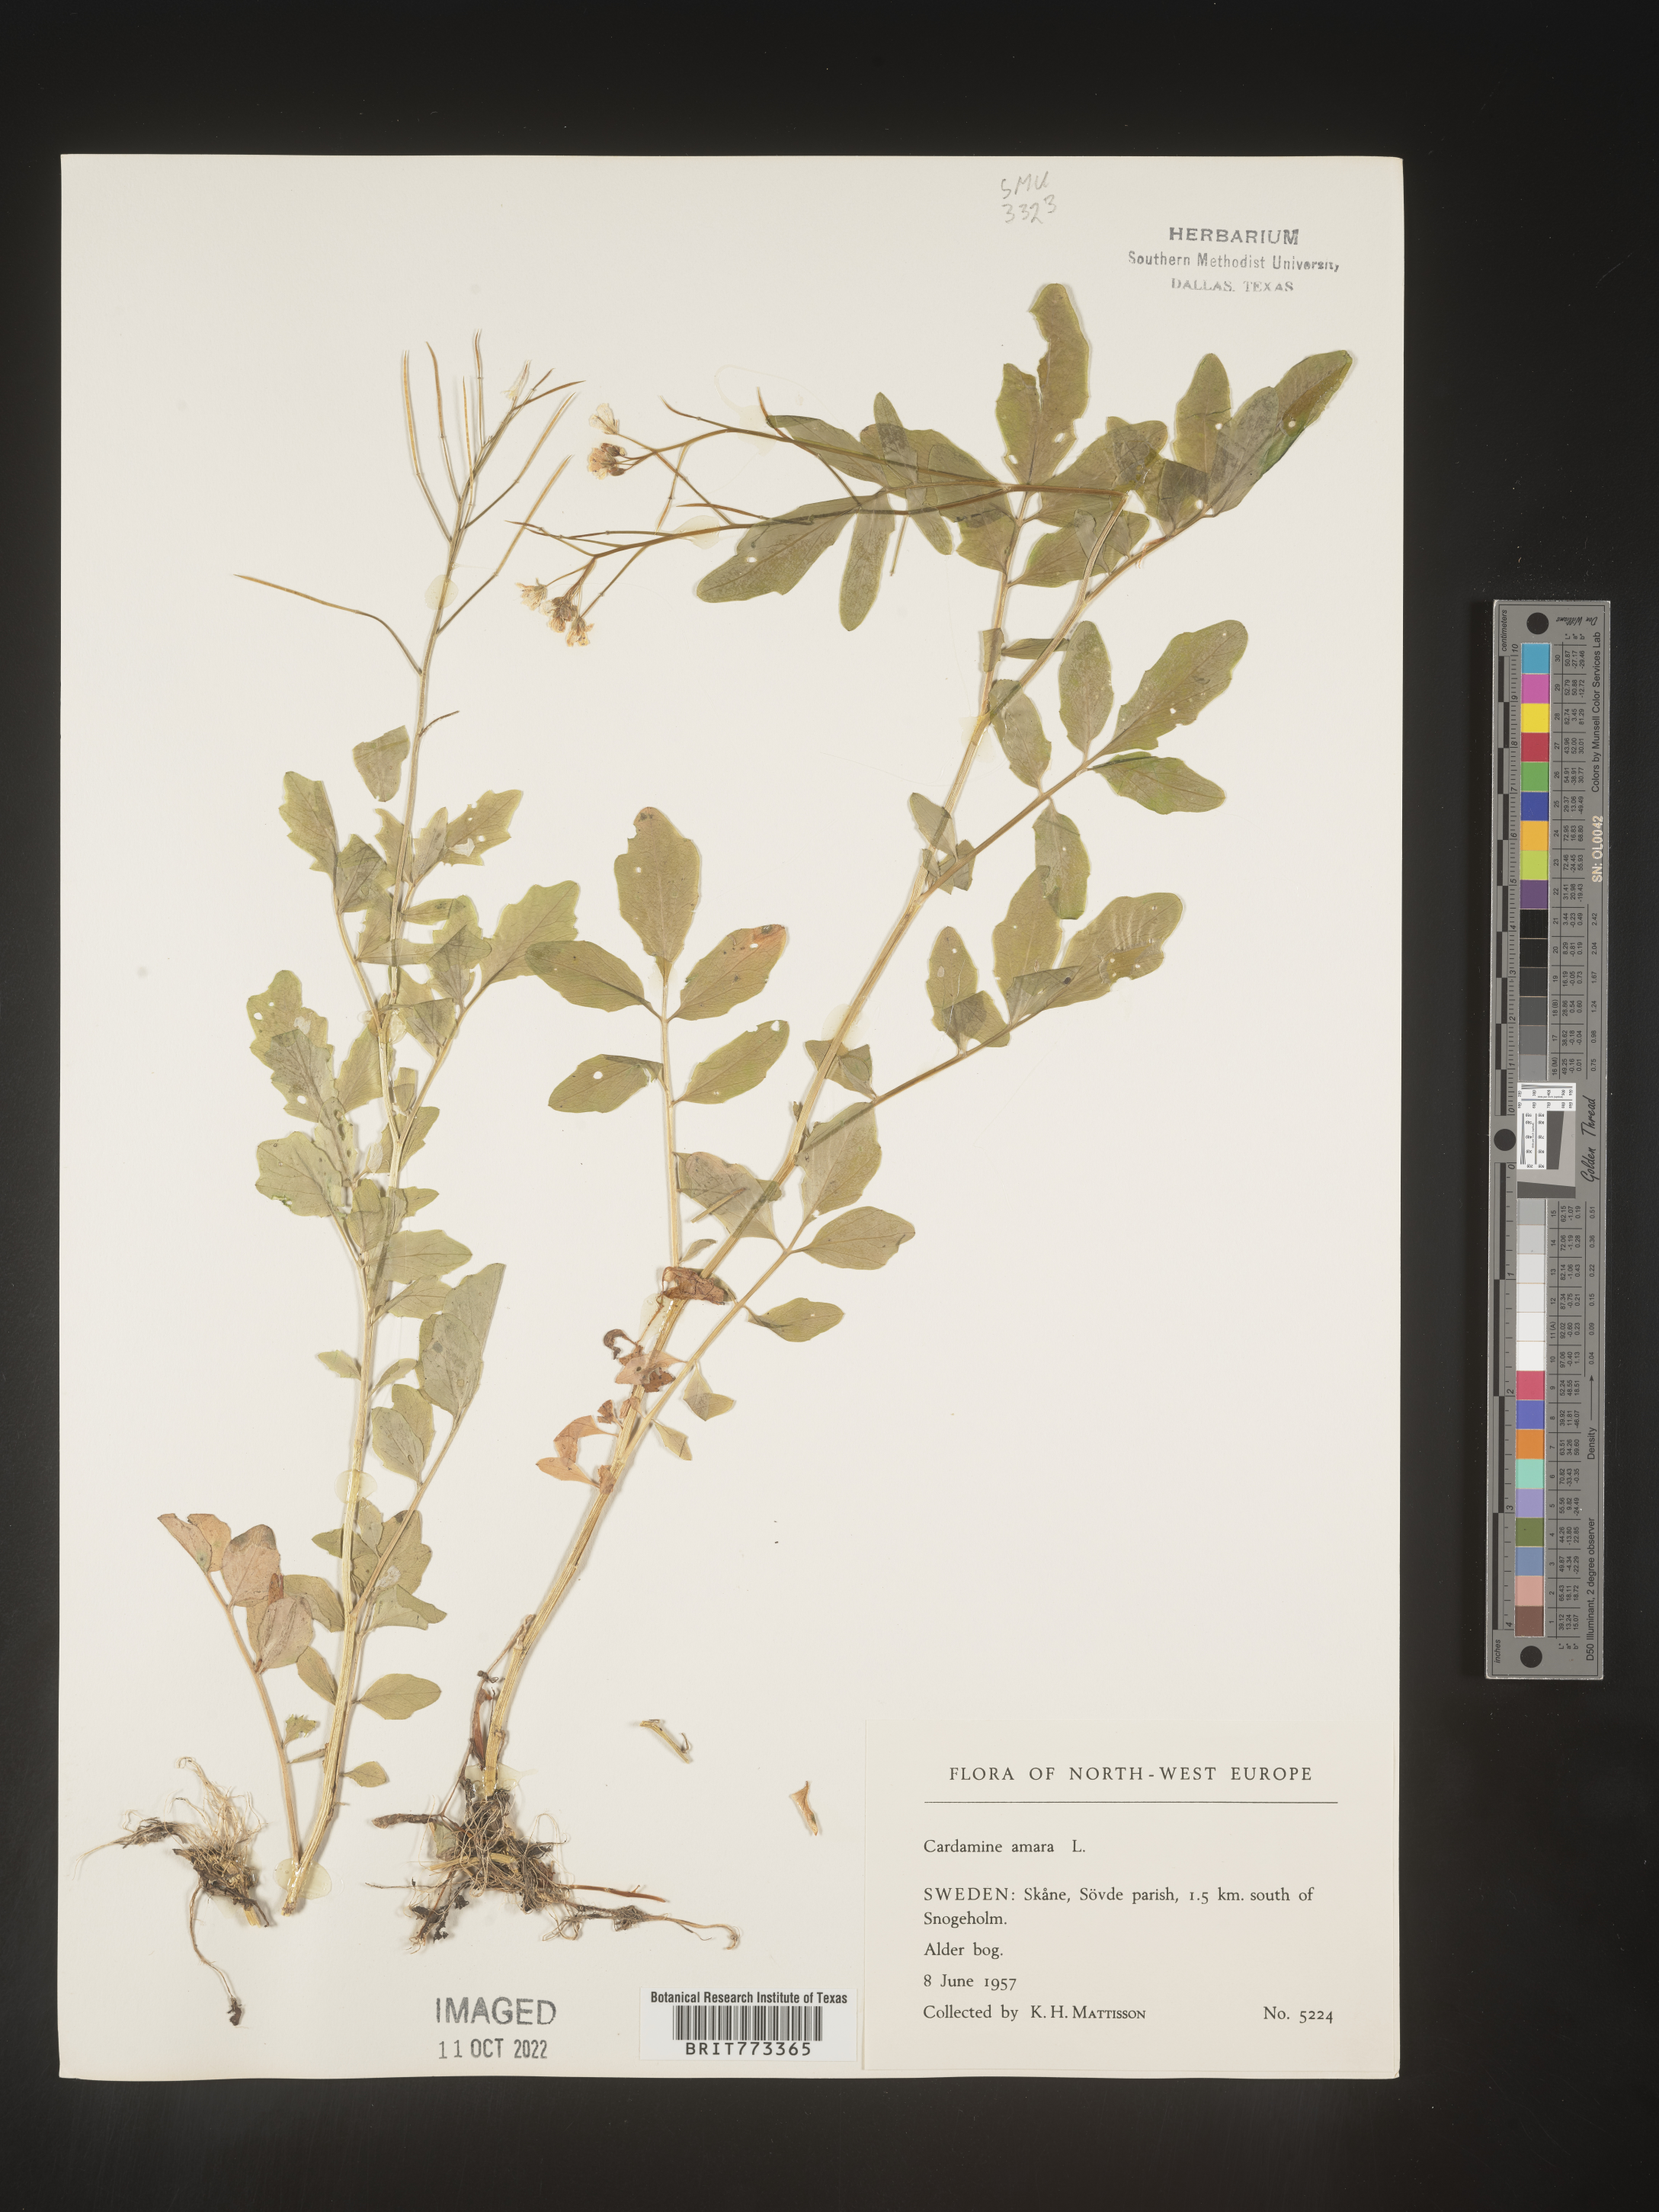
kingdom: Plantae
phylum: Tracheophyta
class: Magnoliopsida
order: Brassicales
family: Brassicaceae
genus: Cardamine
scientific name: Cardamine
